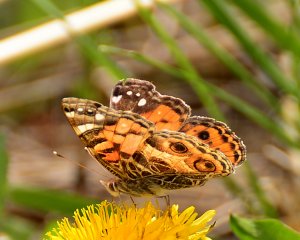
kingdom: Animalia
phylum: Arthropoda
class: Insecta
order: Lepidoptera
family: Nymphalidae
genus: Vanessa
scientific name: Vanessa virginiensis
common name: American Lady
